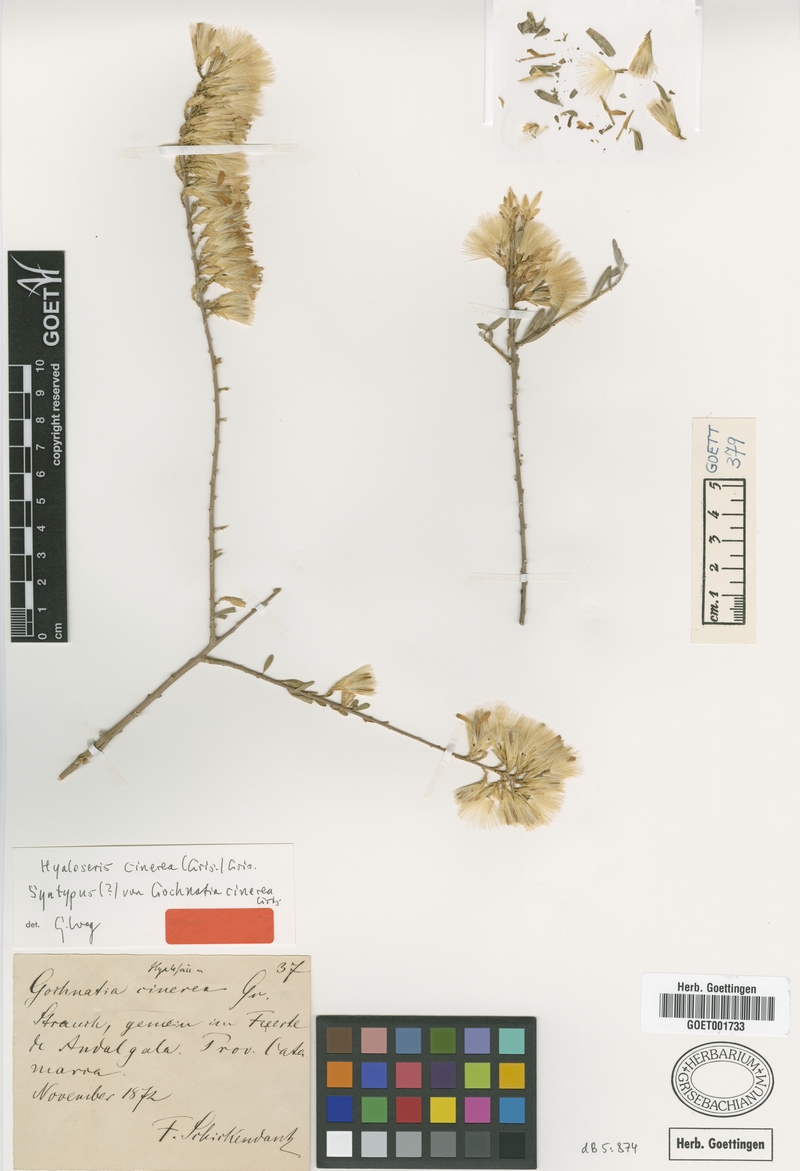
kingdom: Plantae
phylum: Tracheophyta
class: Magnoliopsida
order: Asterales
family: Asteraceae
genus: Hyaloseris
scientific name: Hyaloseris cinerea
